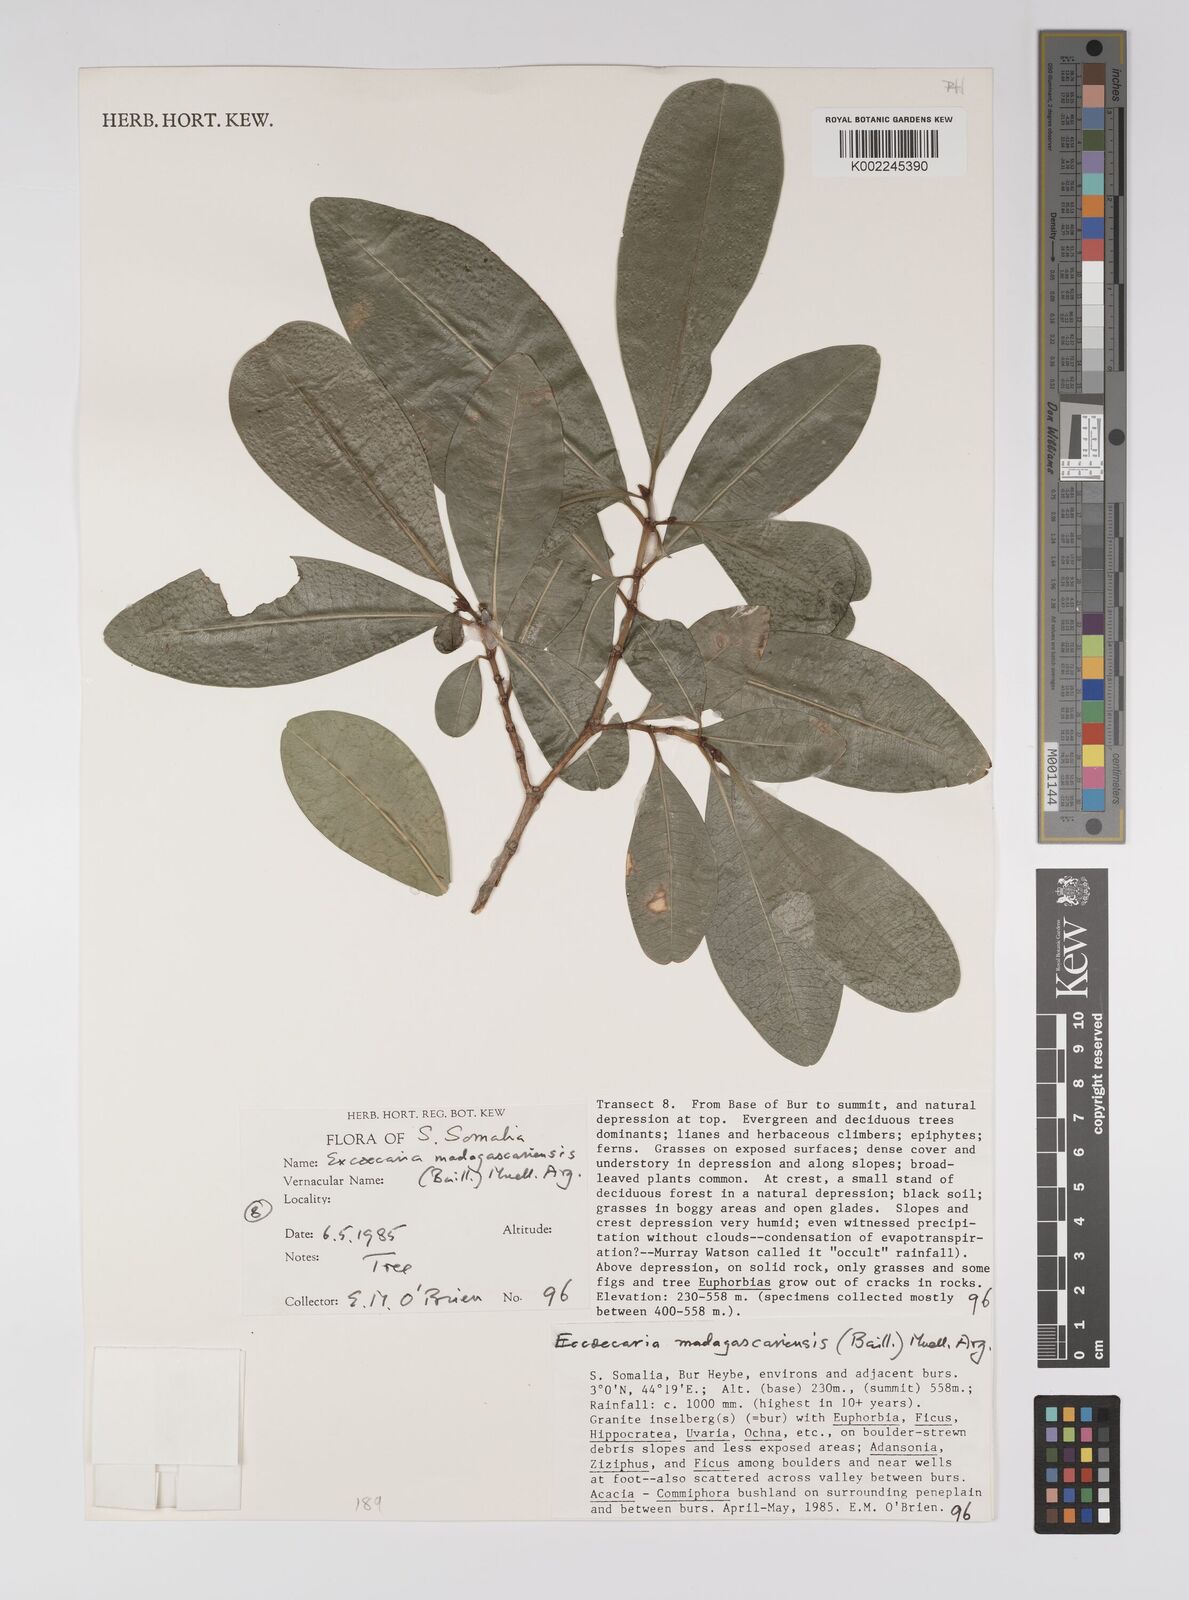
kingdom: Plantae
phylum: Tracheophyta
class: Magnoliopsida
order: Malpighiales
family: Euphorbiaceae
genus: Excoecaria
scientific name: Excoecaria madagascariensis
